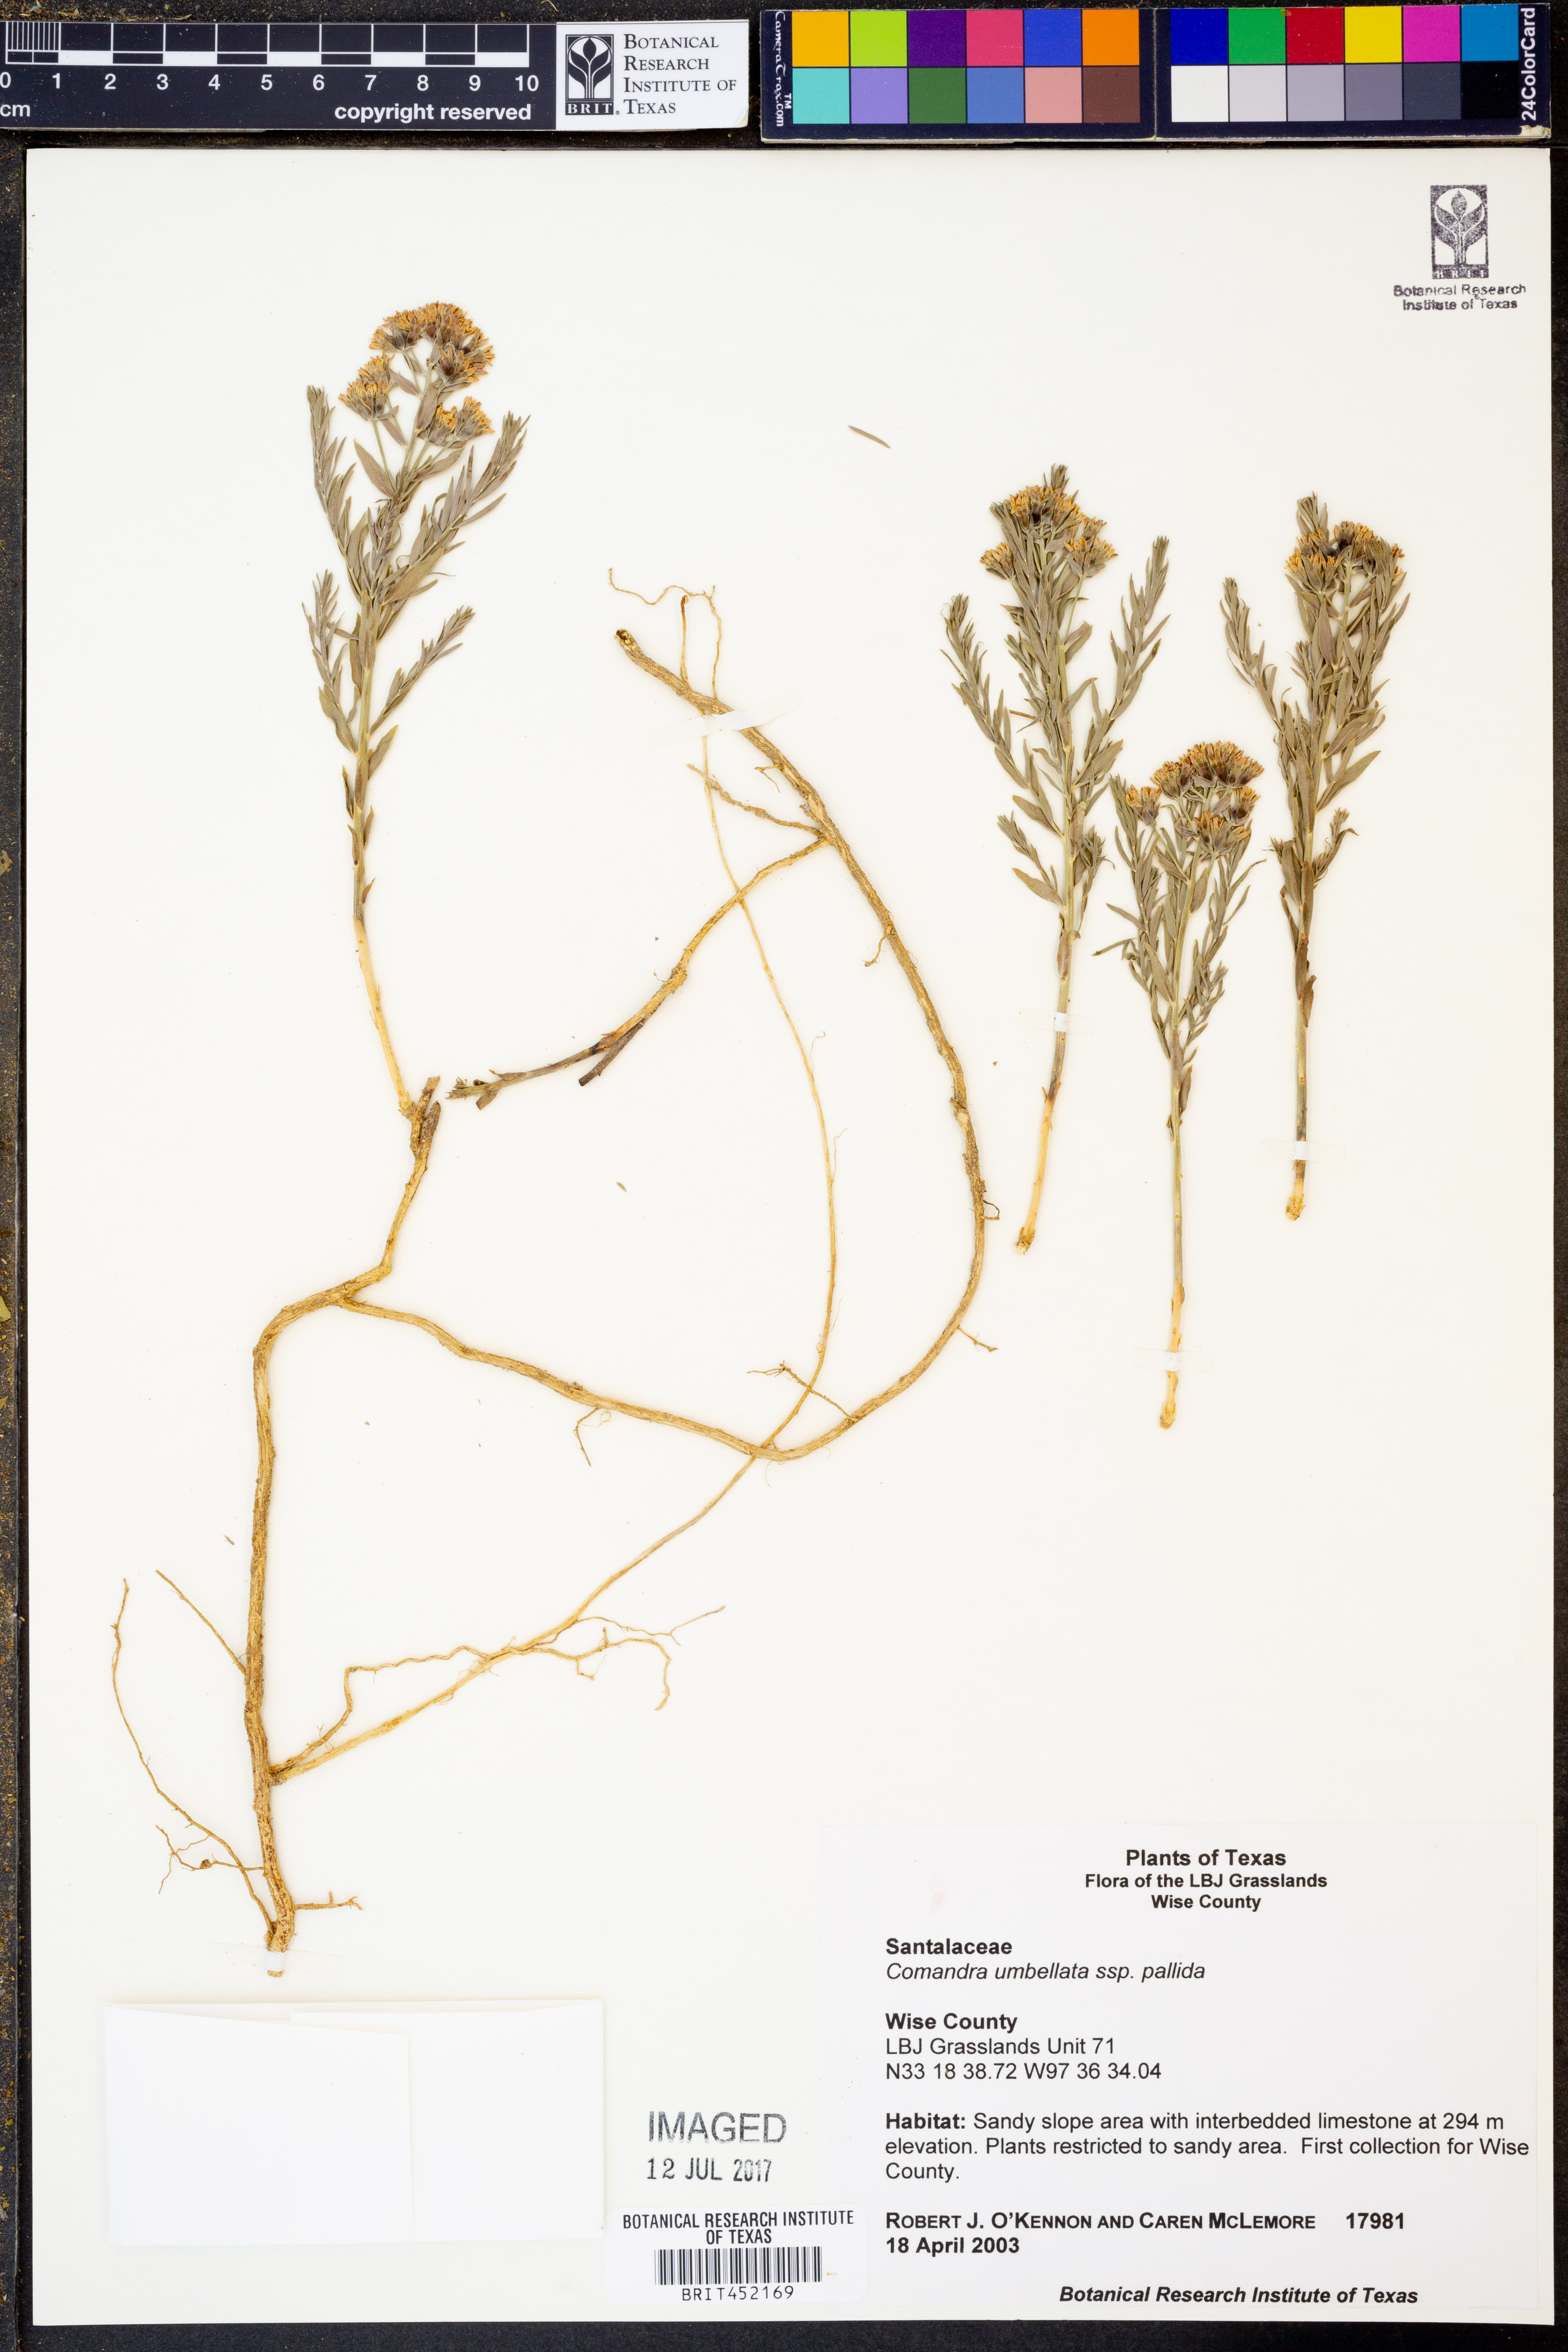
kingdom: Plantae
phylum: Tracheophyta
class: Magnoliopsida
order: Santalales
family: Comandraceae
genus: Comandra
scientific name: Comandra umbellata
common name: Bastard toadflax
